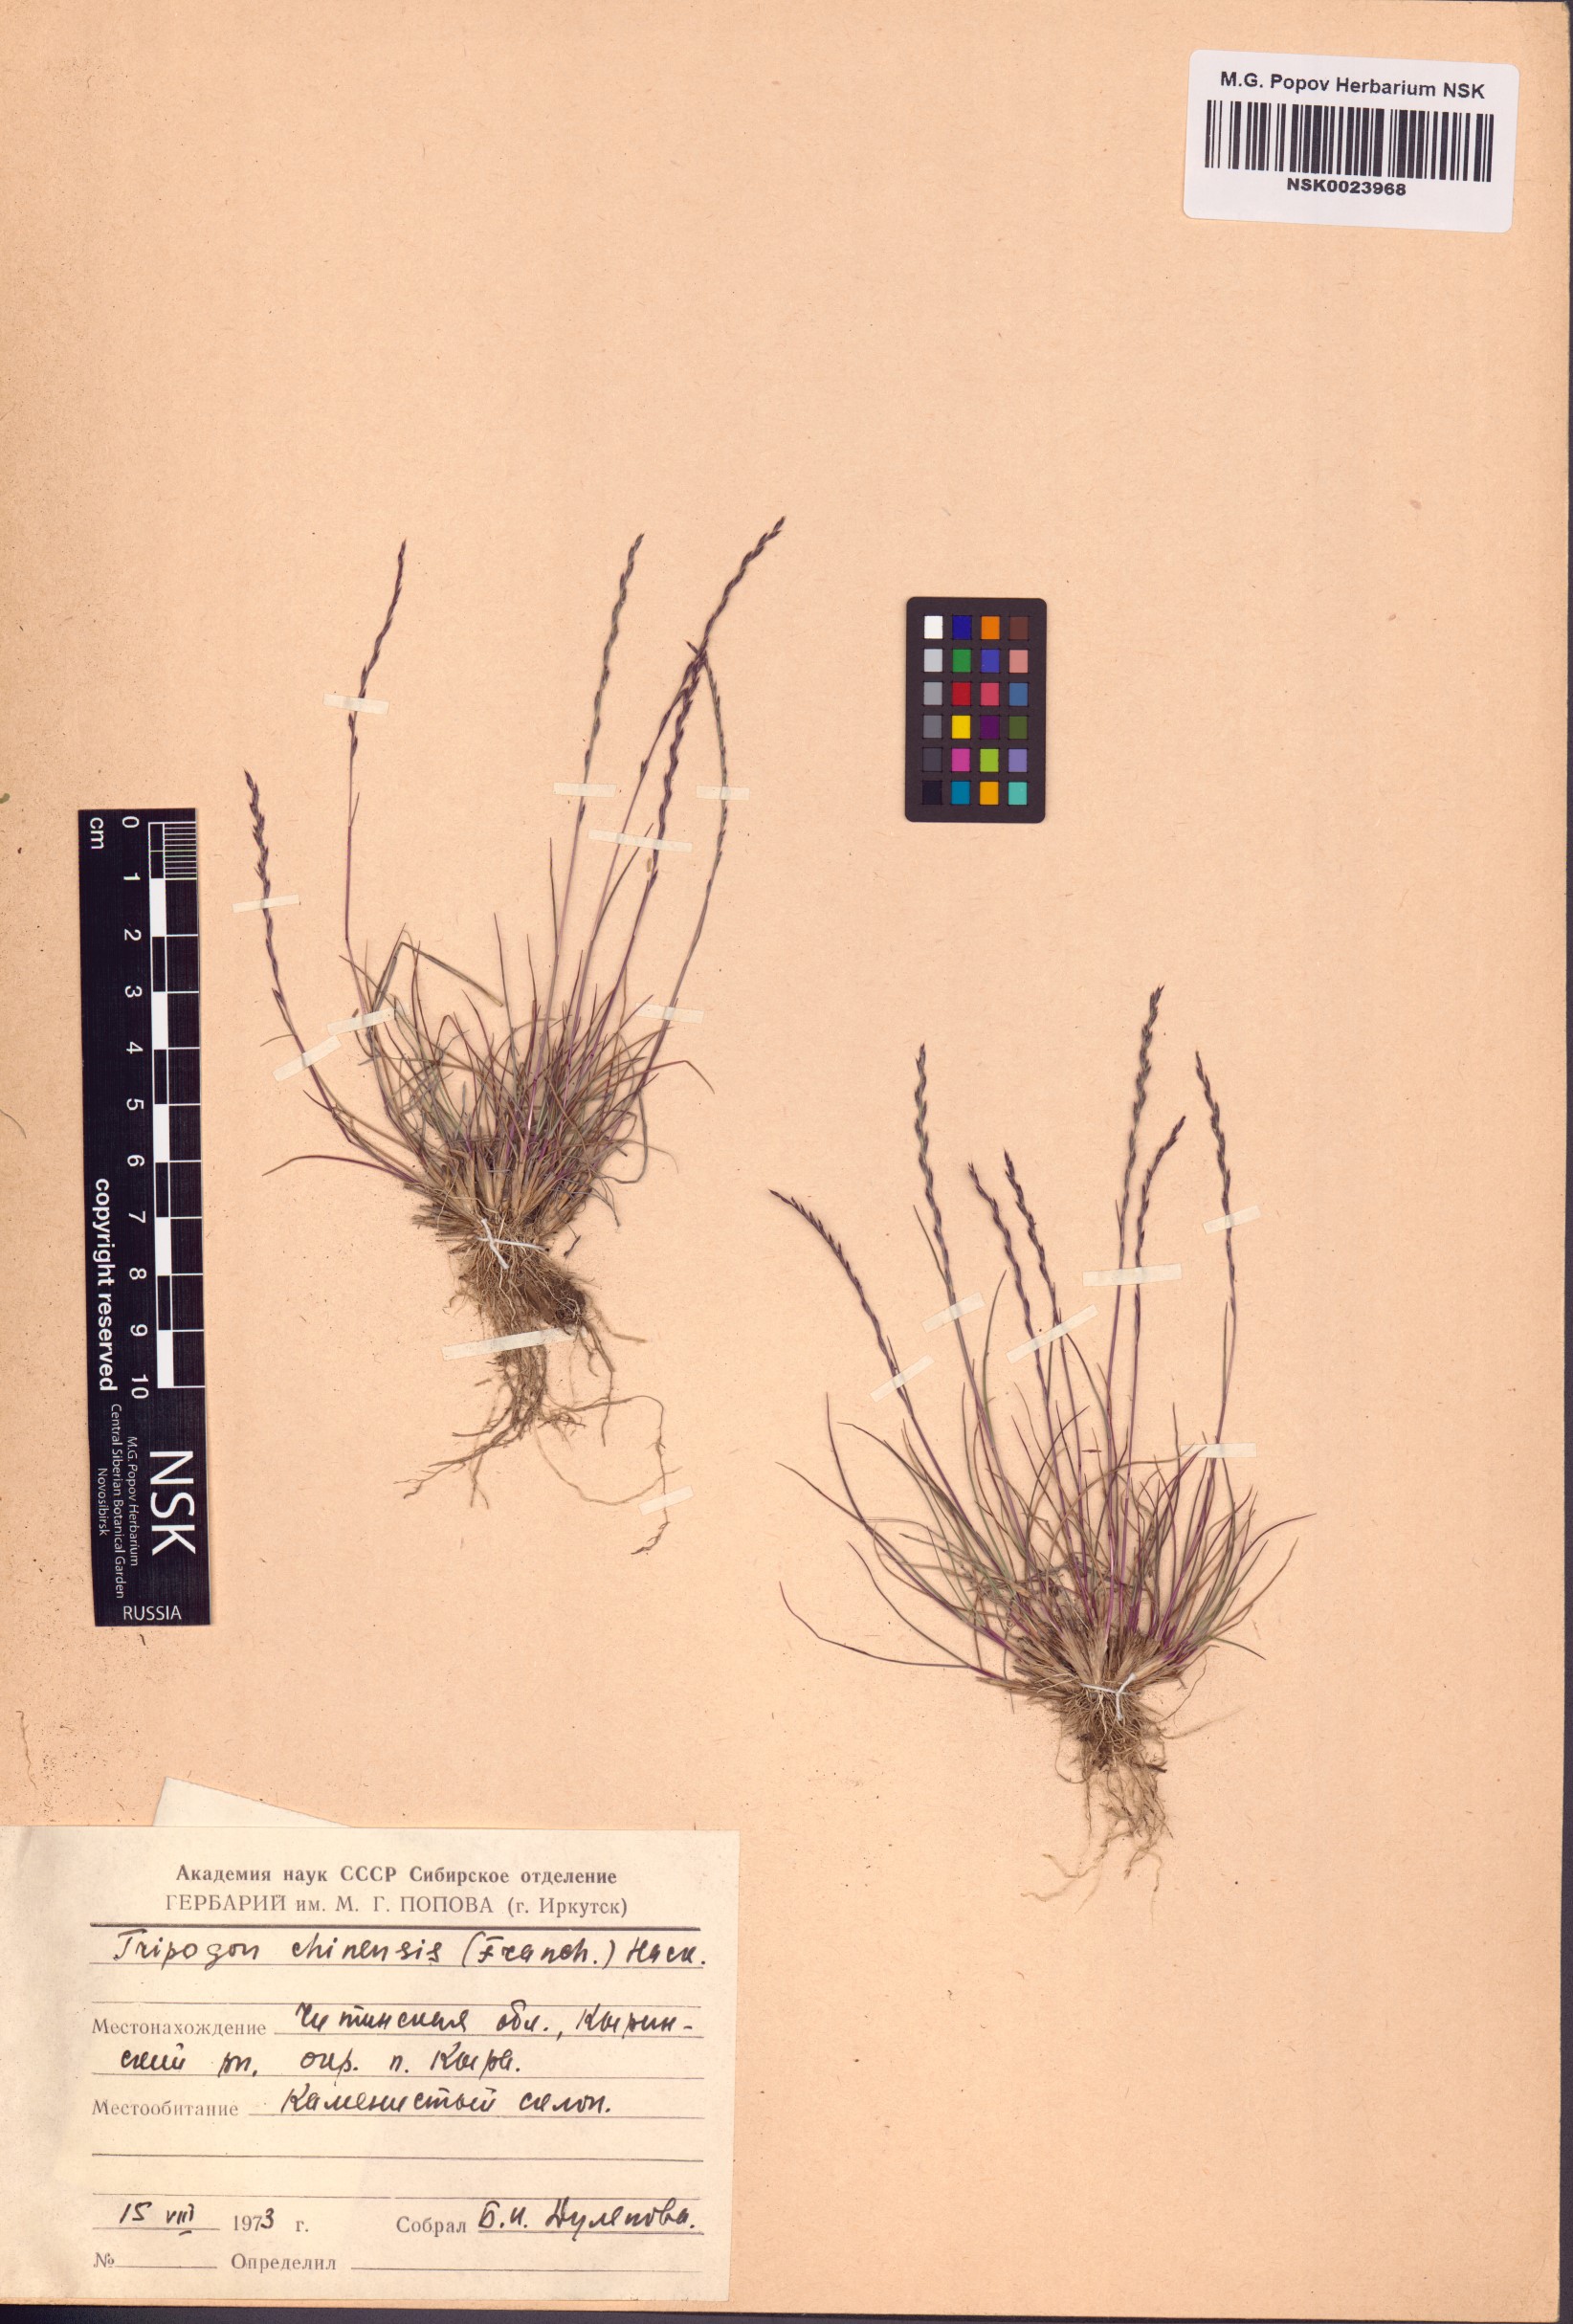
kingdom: Plantae
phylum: Tracheophyta
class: Liliopsida
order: Poales
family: Poaceae
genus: Tripogon
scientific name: Tripogon chinensis
